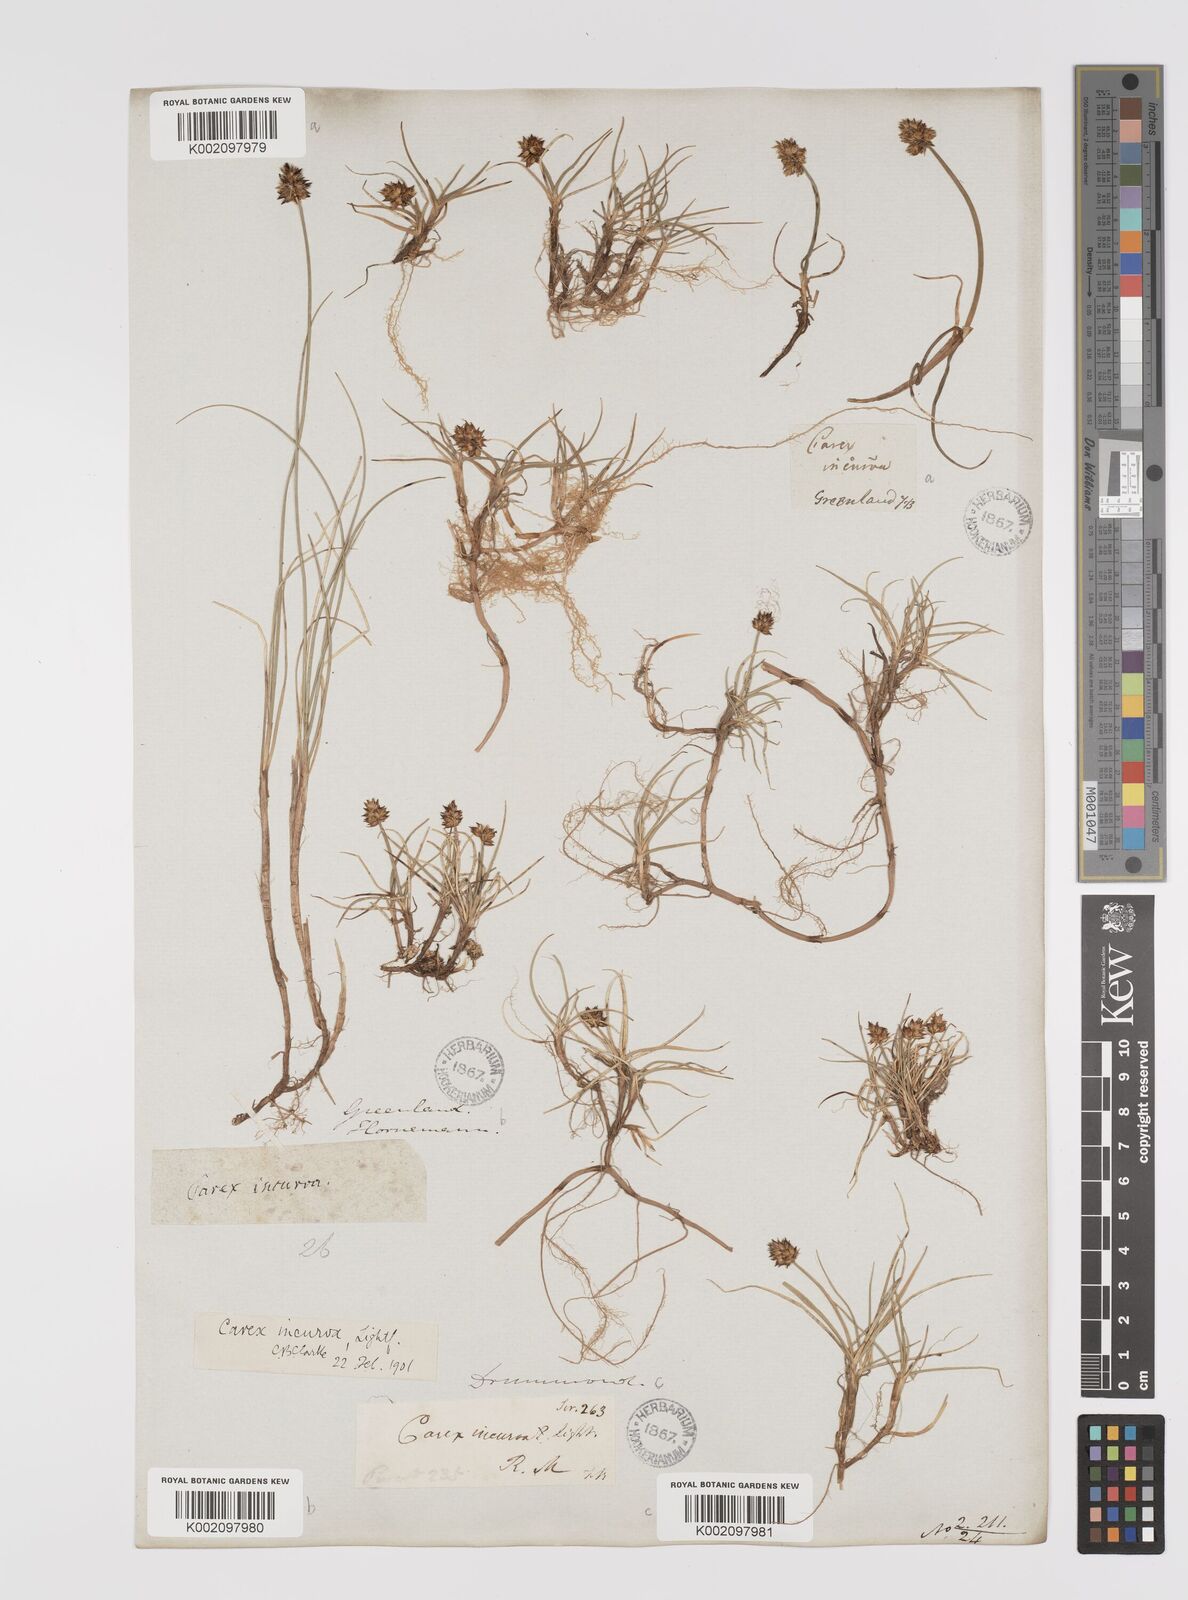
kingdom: Plantae
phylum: Tracheophyta
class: Liliopsida
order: Poales
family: Cyperaceae
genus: Carex
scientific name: Carex maritima
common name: Curved sedge
